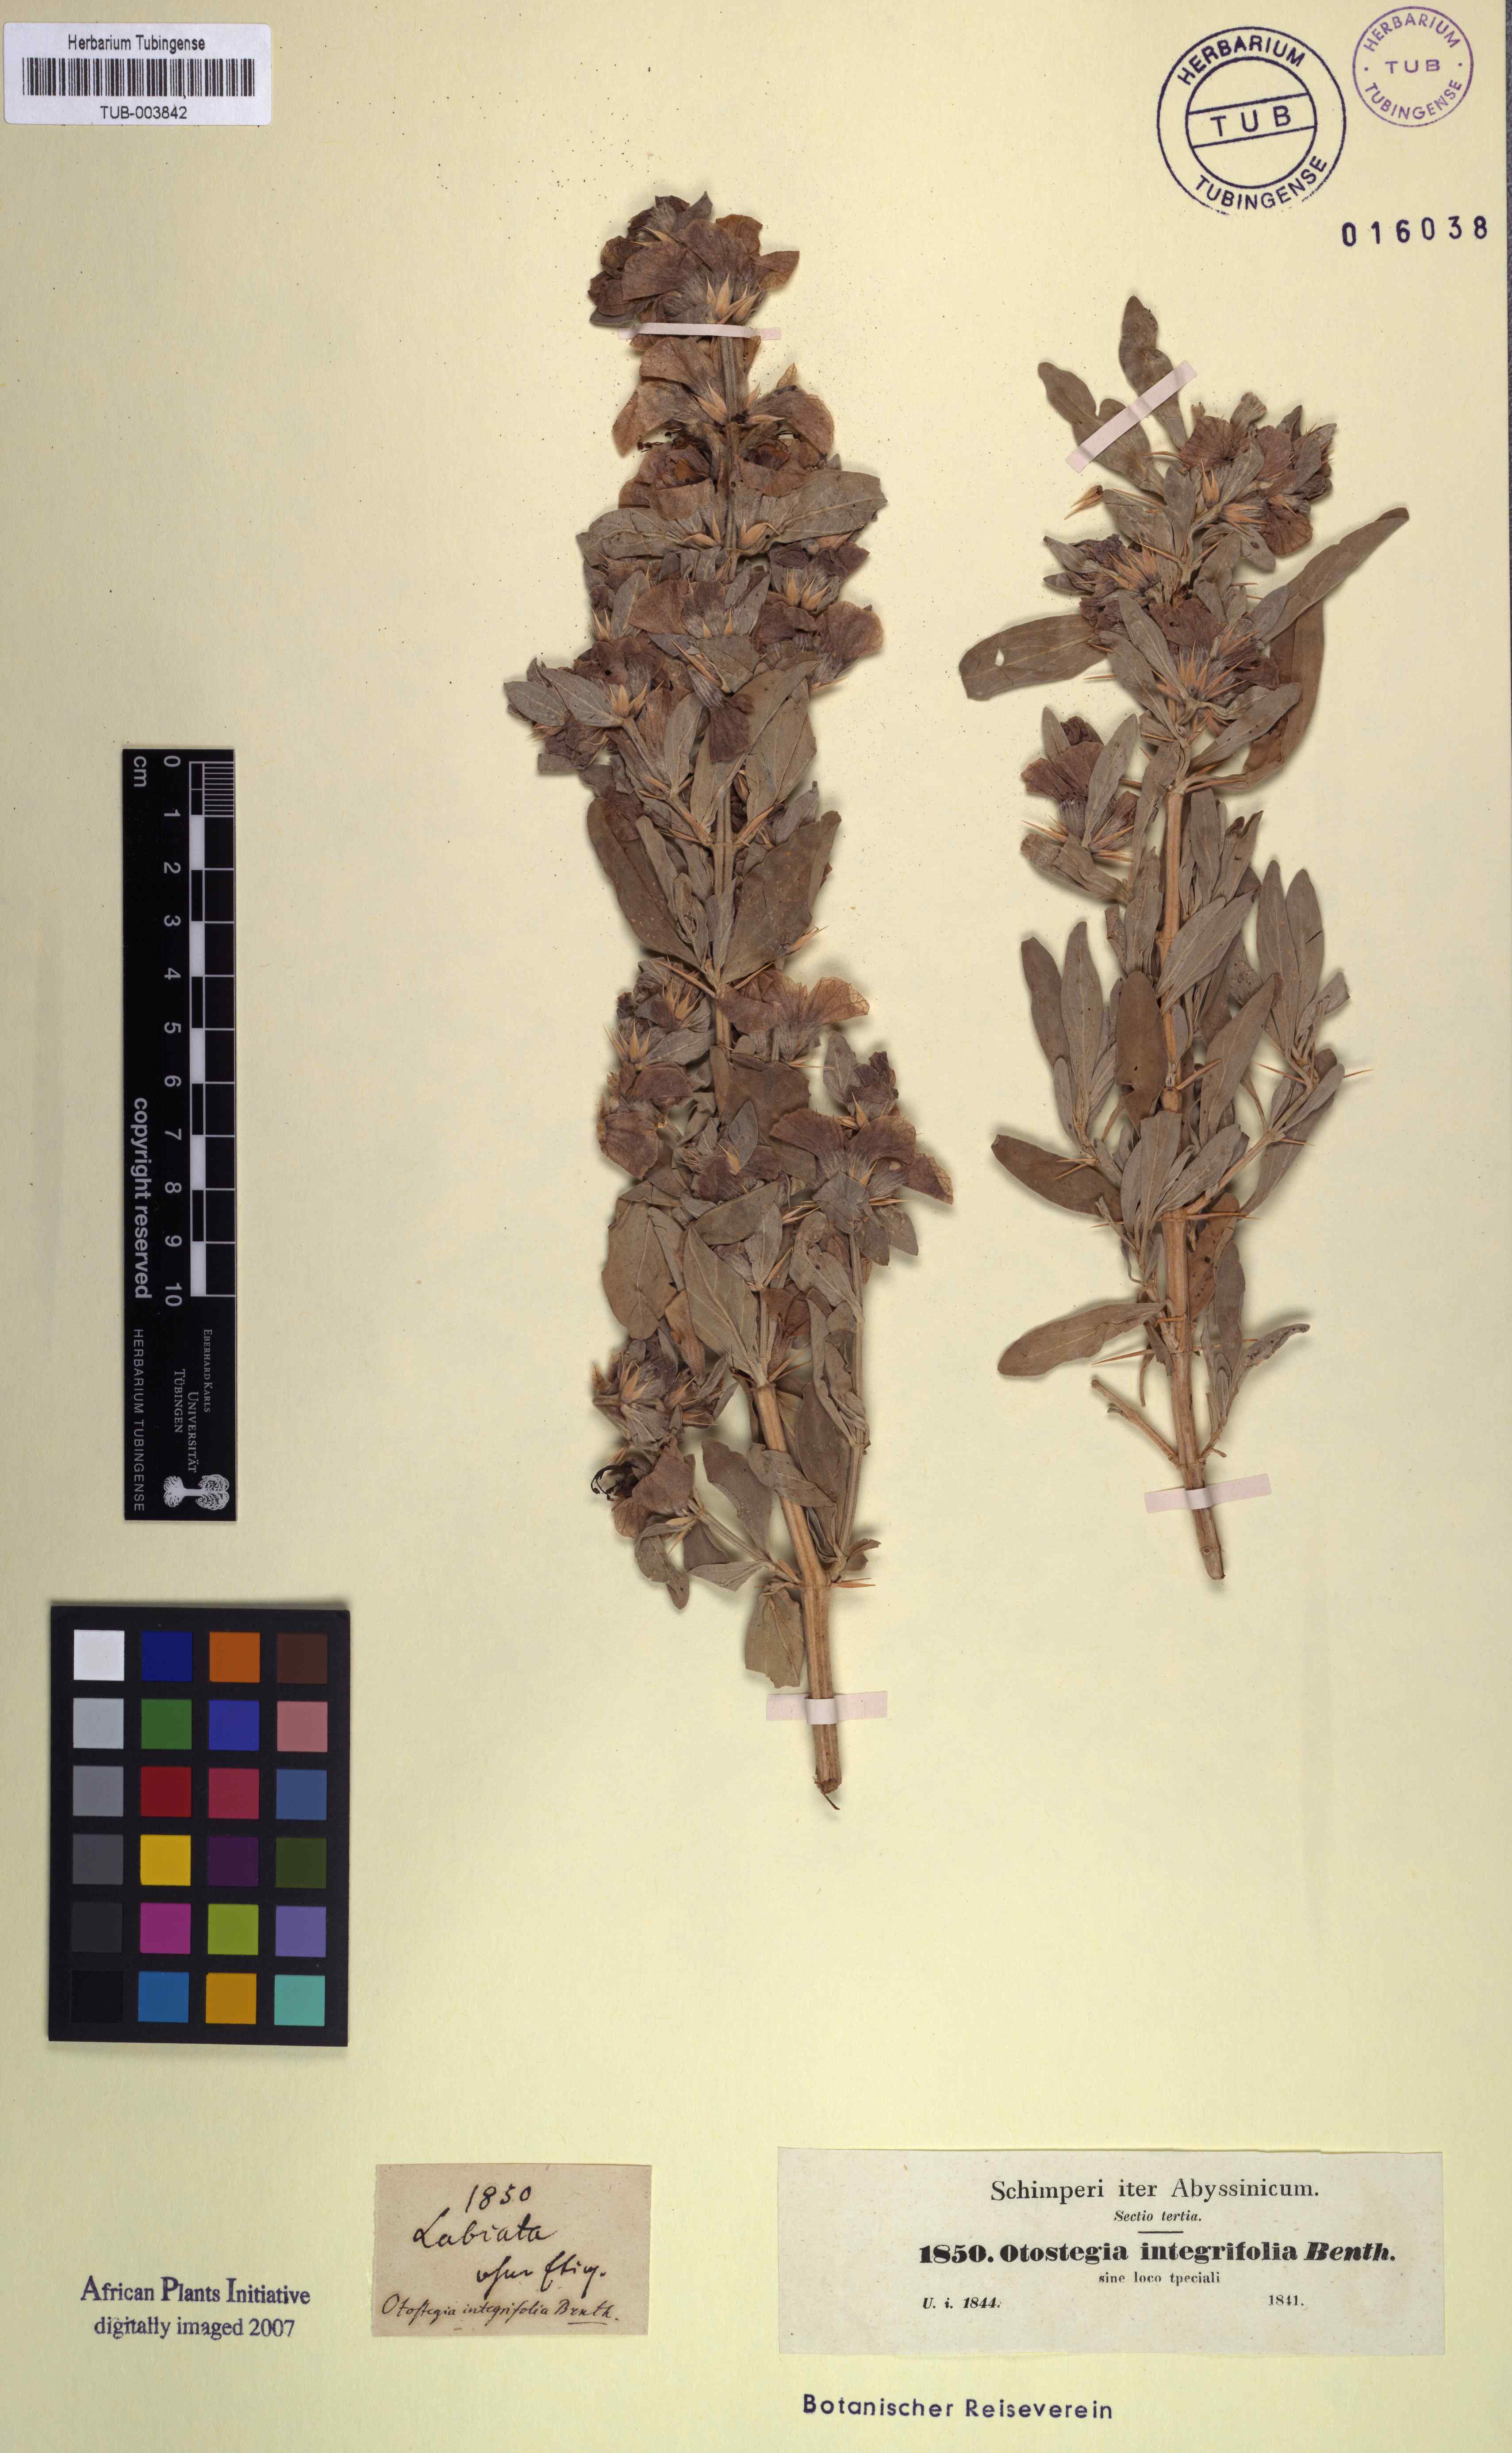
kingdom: Plantae
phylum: Tracheophyta
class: Magnoliopsida
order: Lamiales
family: Lamiaceae
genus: Rydingia
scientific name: Rydingia integrifolia
